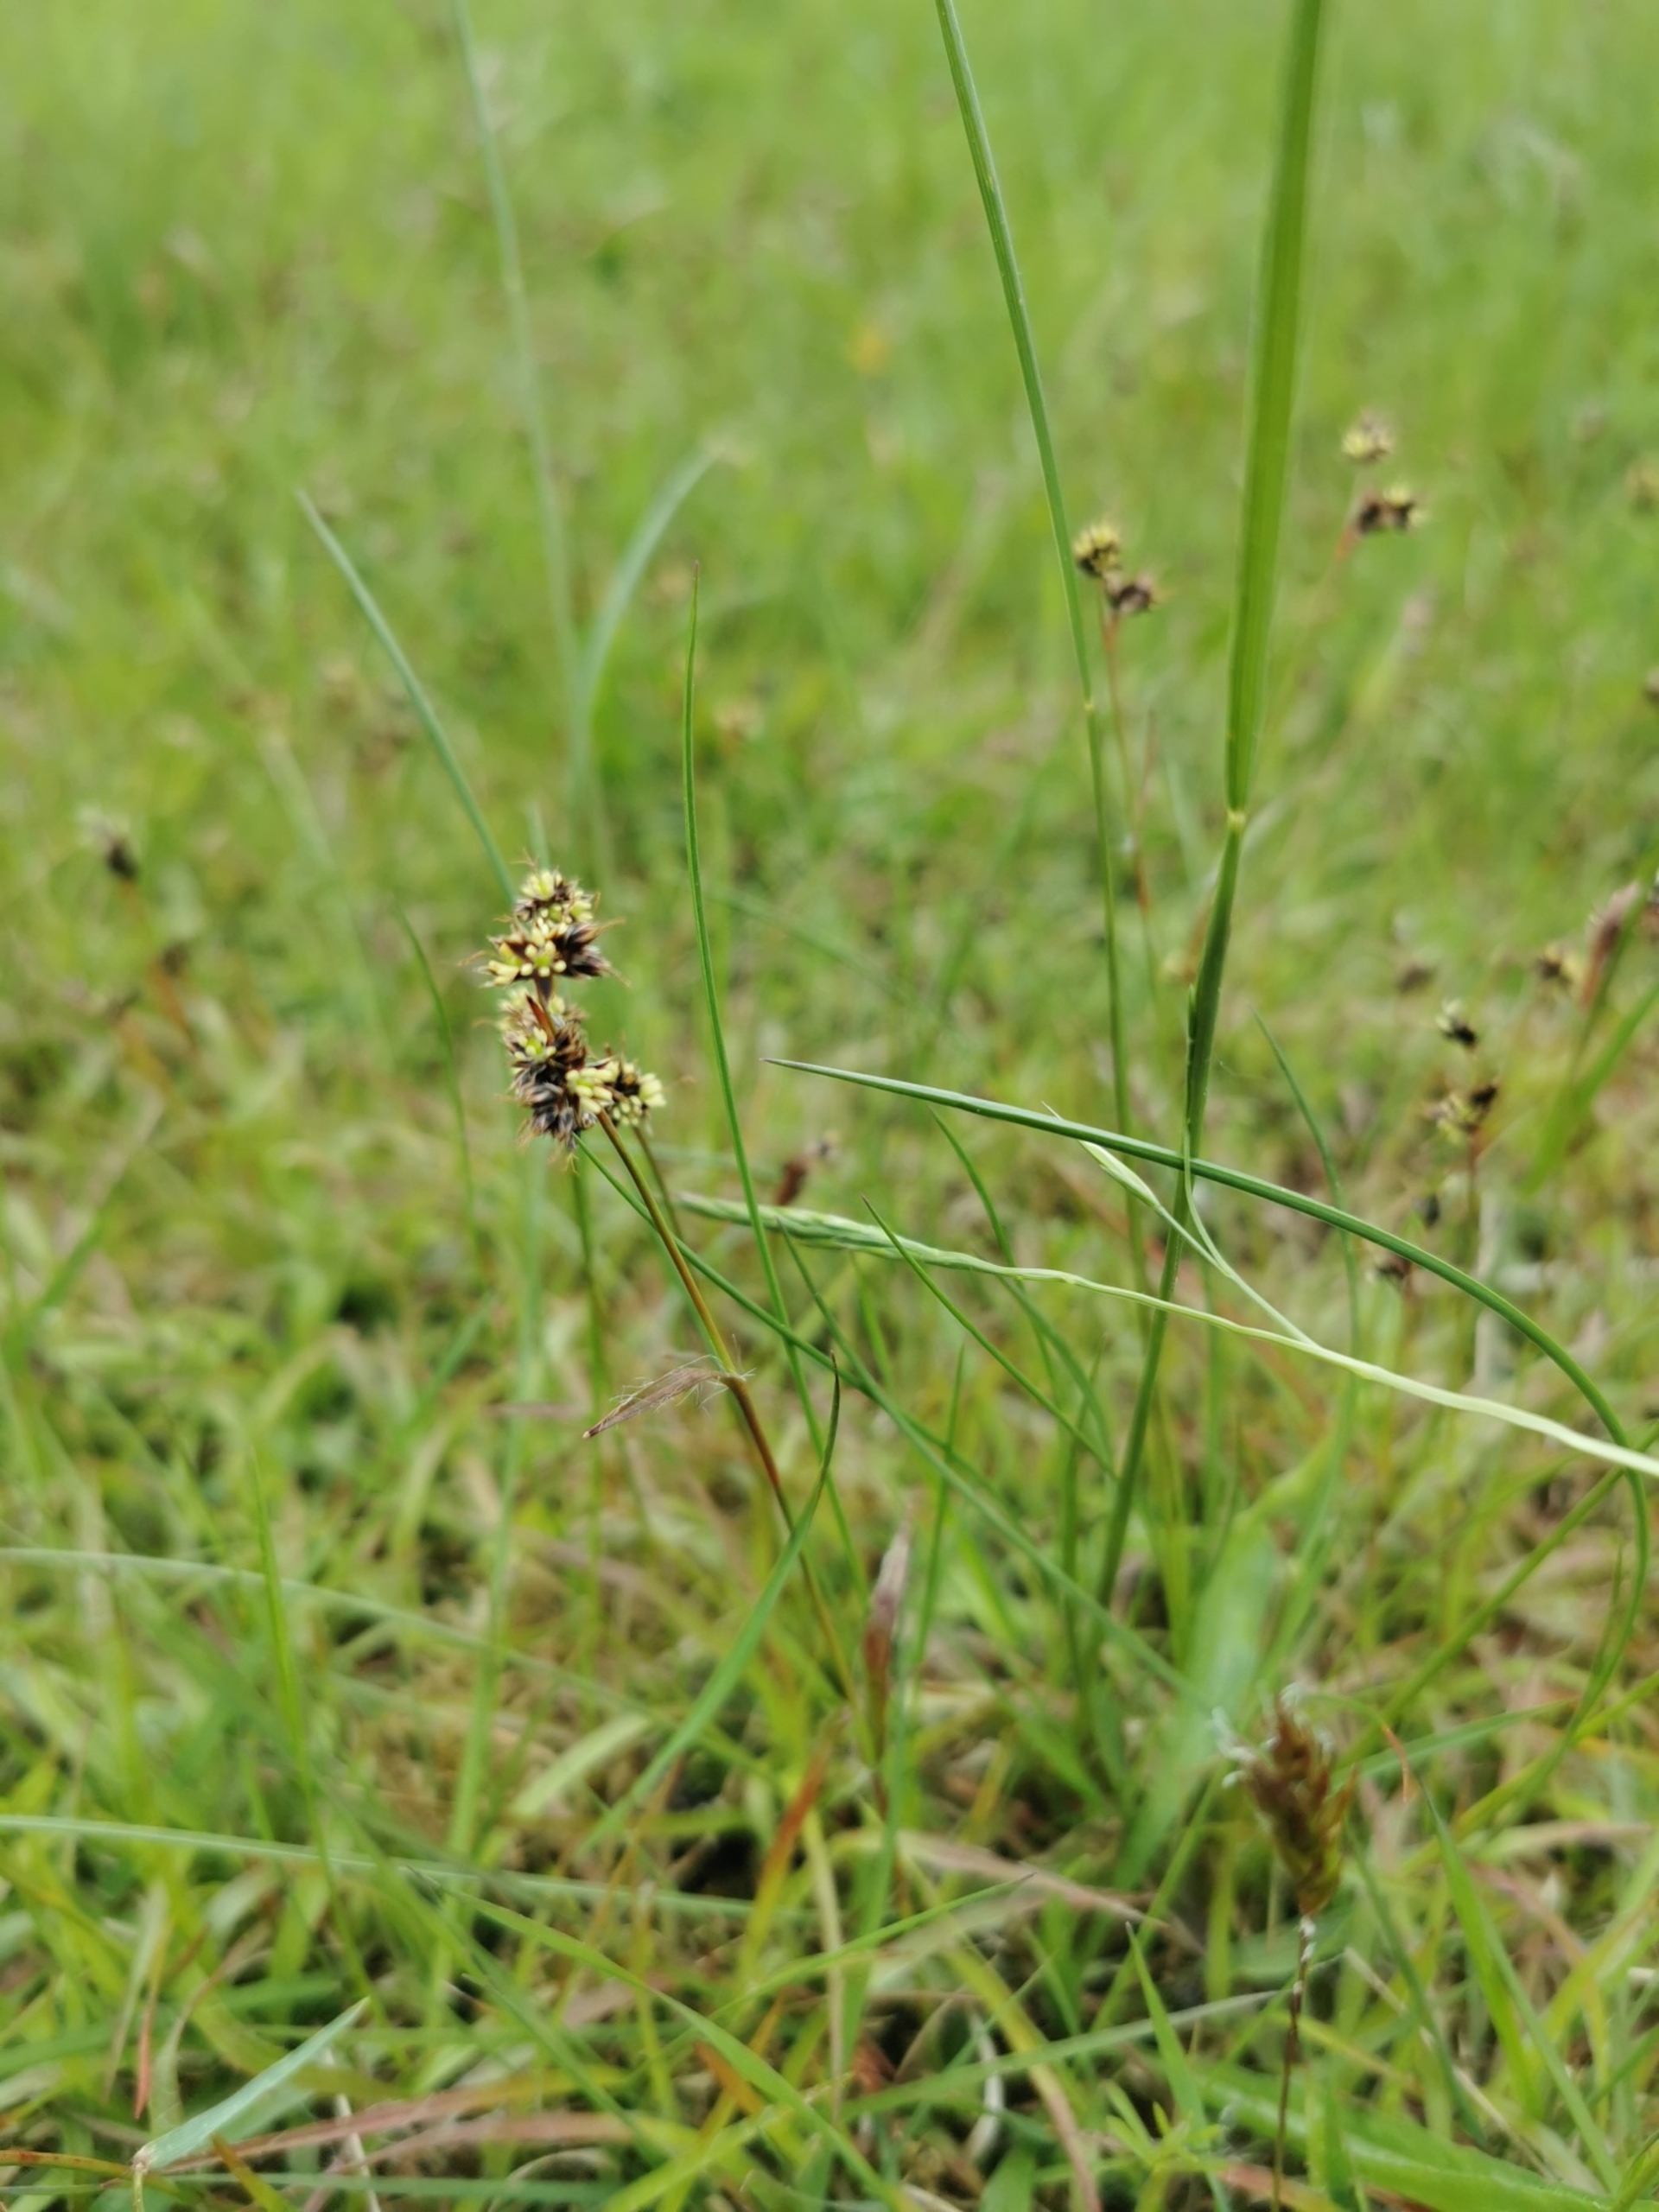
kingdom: Plantae
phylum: Tracheophyta
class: Liliopsida
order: Poales
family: Juncaceae
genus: Luzula
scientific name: Luzula campestris
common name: Mark-frytle
